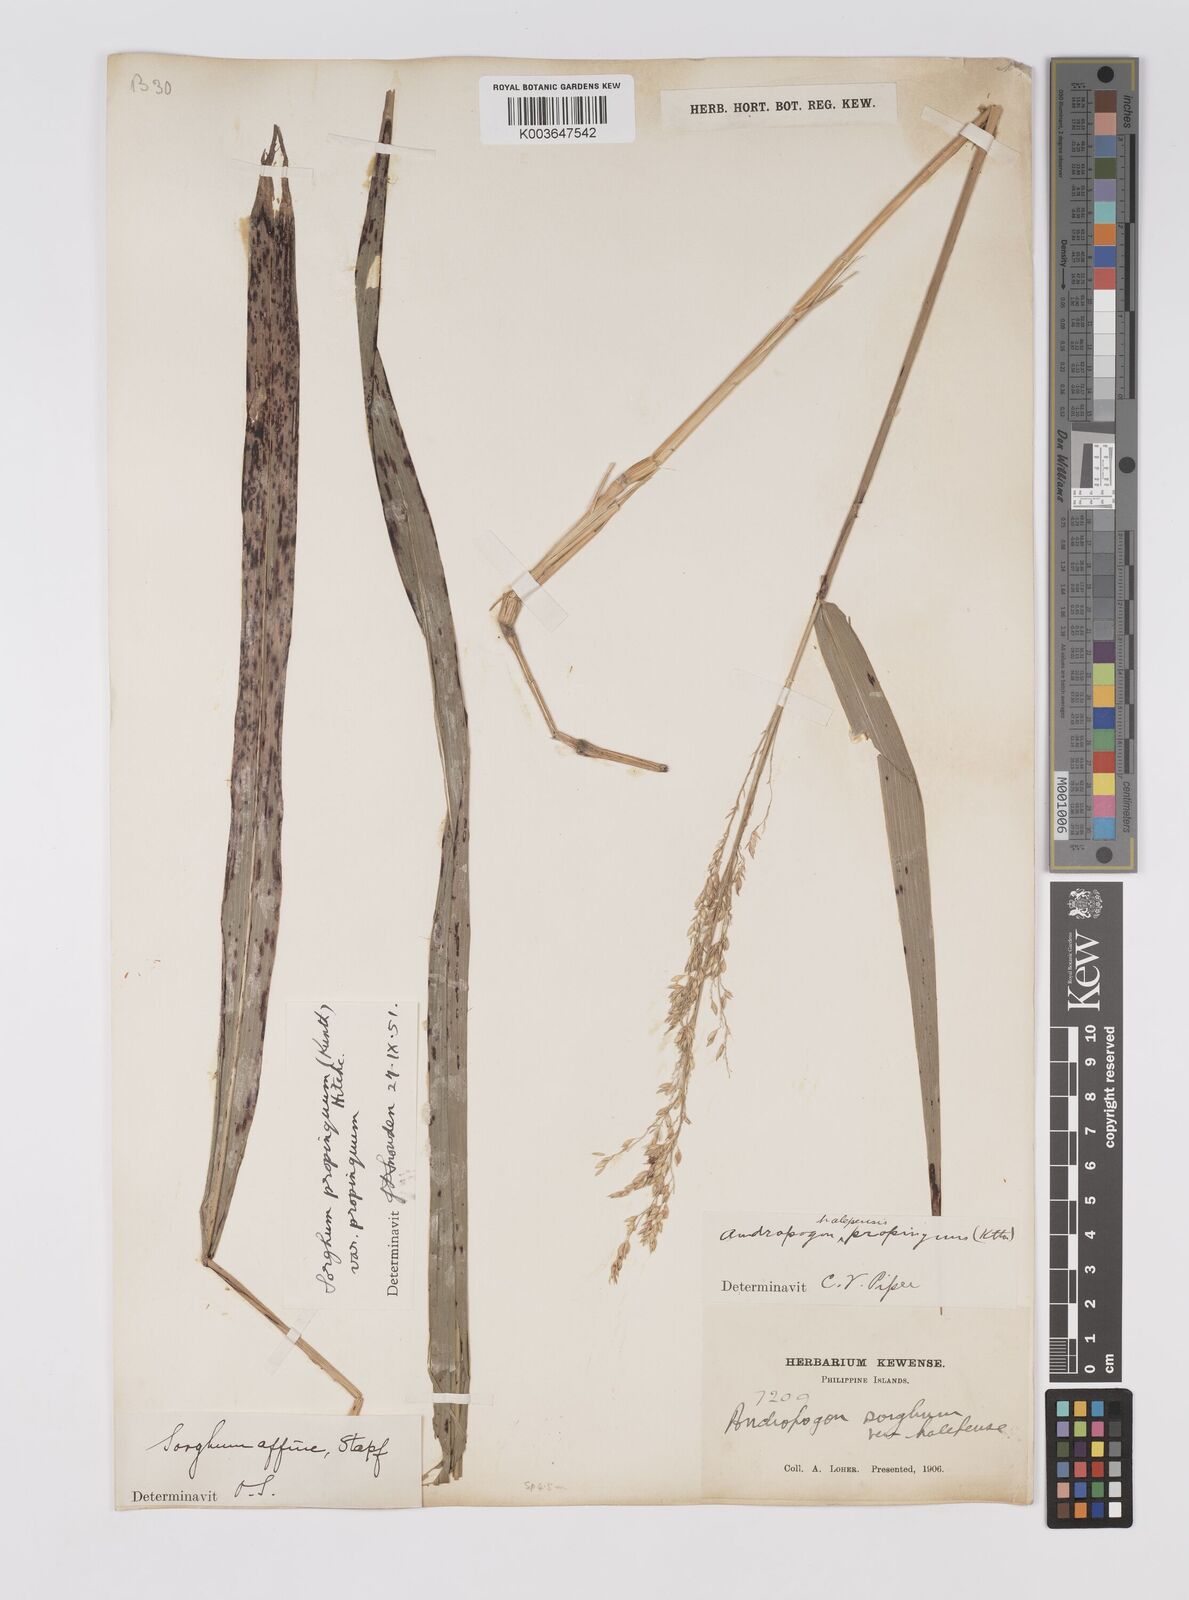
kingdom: Plantae
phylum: Tracheophyta
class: Liliopsida
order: Poales
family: Poaceae
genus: Sorghum
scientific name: Sorghum propinquum
